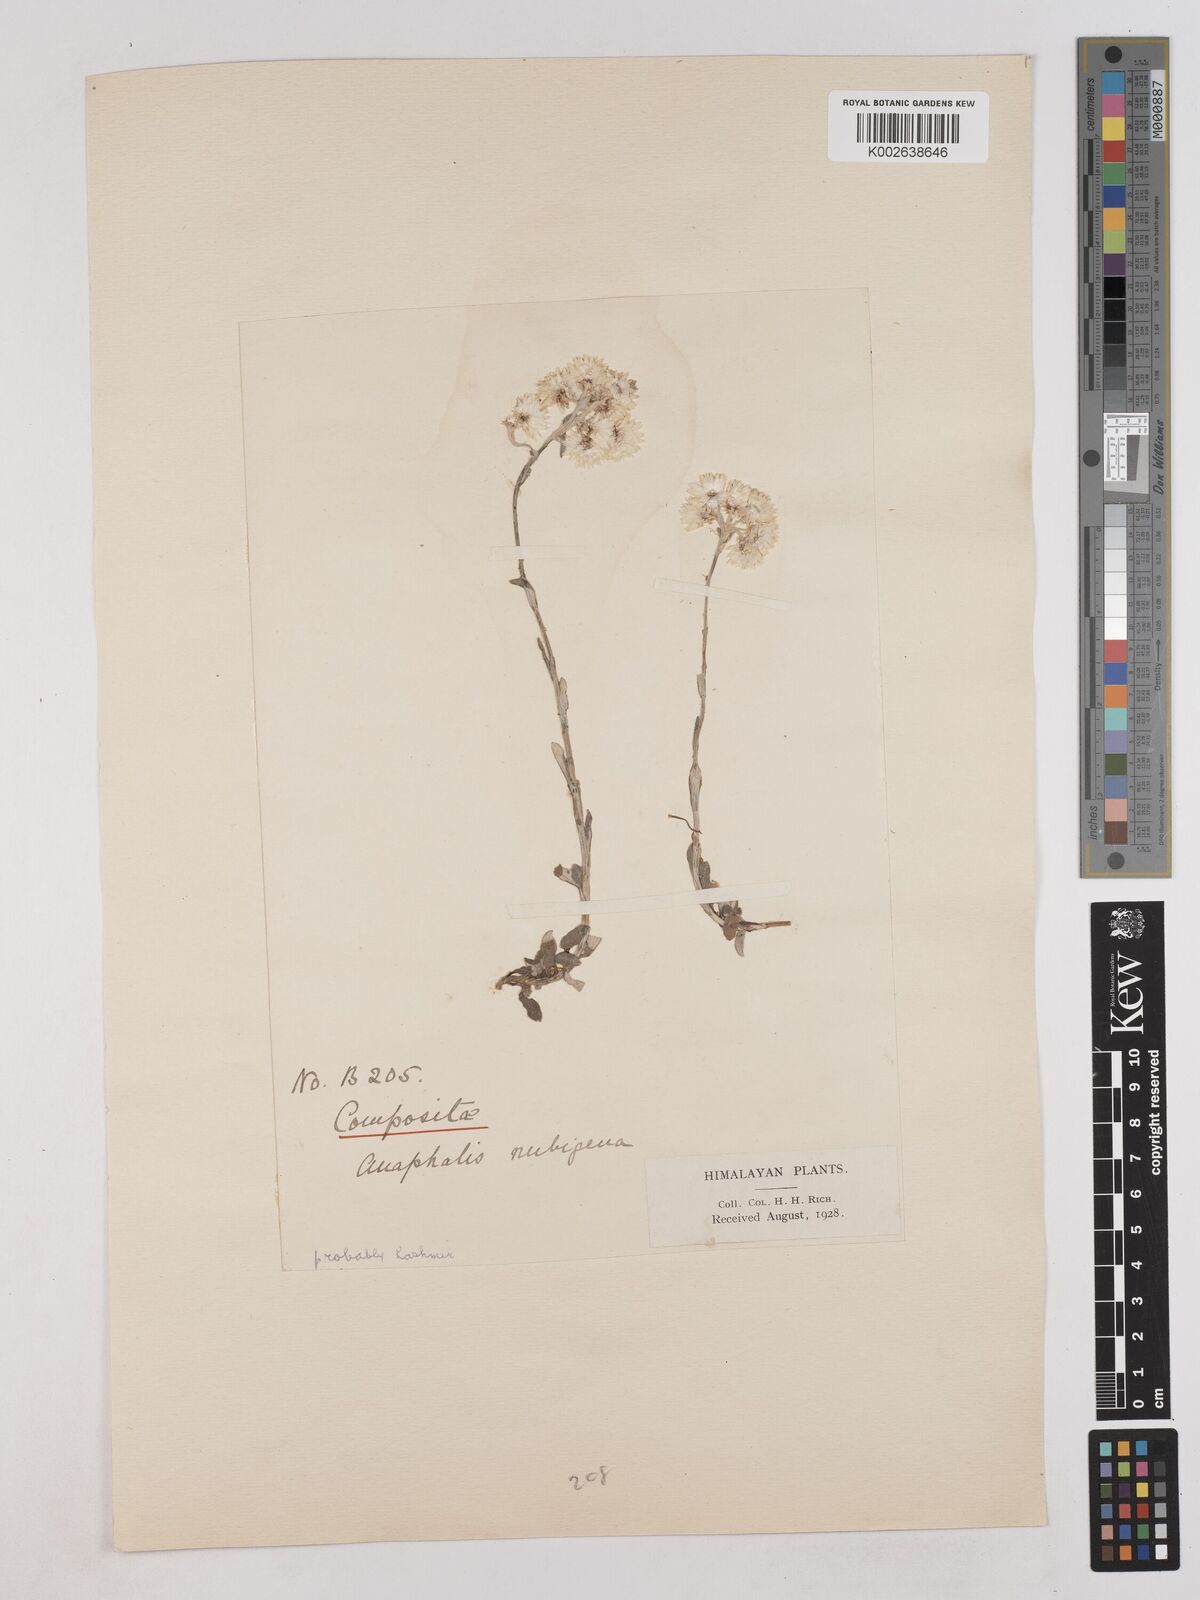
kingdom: Plantae
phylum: Tracheophyta
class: Magnoliopsida
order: Asterales
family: Asteraceae
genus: Anaphalis
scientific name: Anaphalis nepalensis
